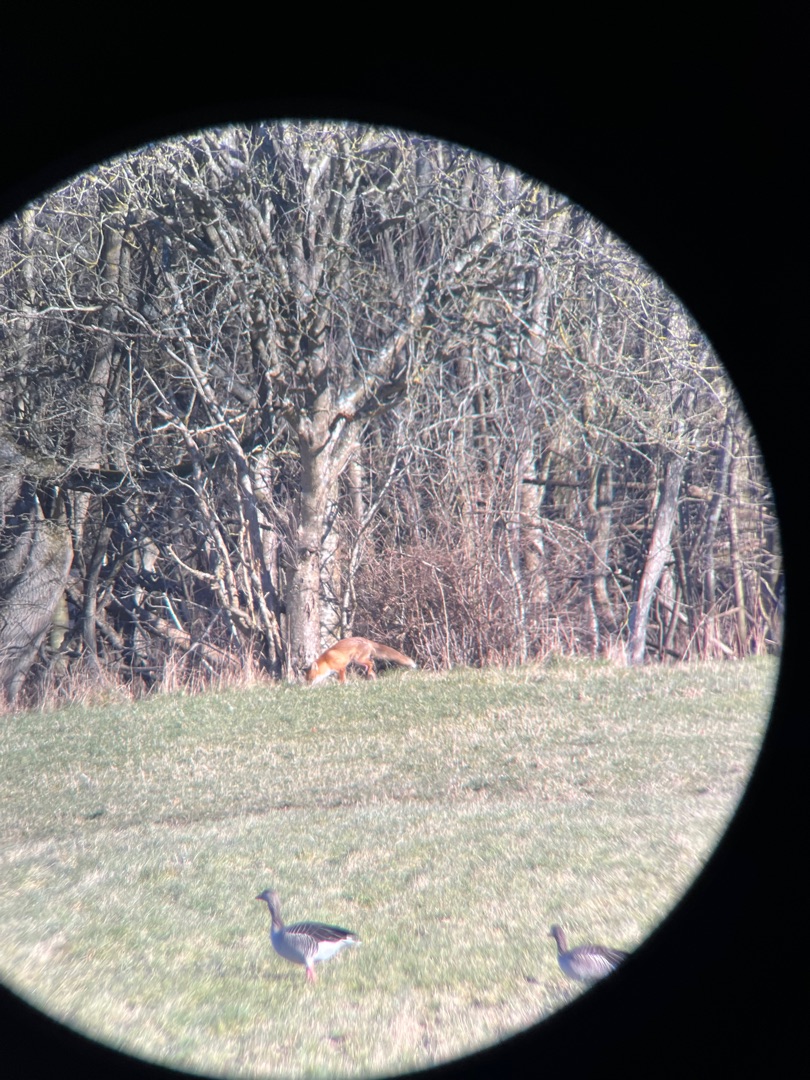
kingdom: Animalia
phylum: Chordata
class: Mammalia
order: Carnivora
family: Canidae
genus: Vulpes
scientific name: Vulpes vulpes
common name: Ræv
